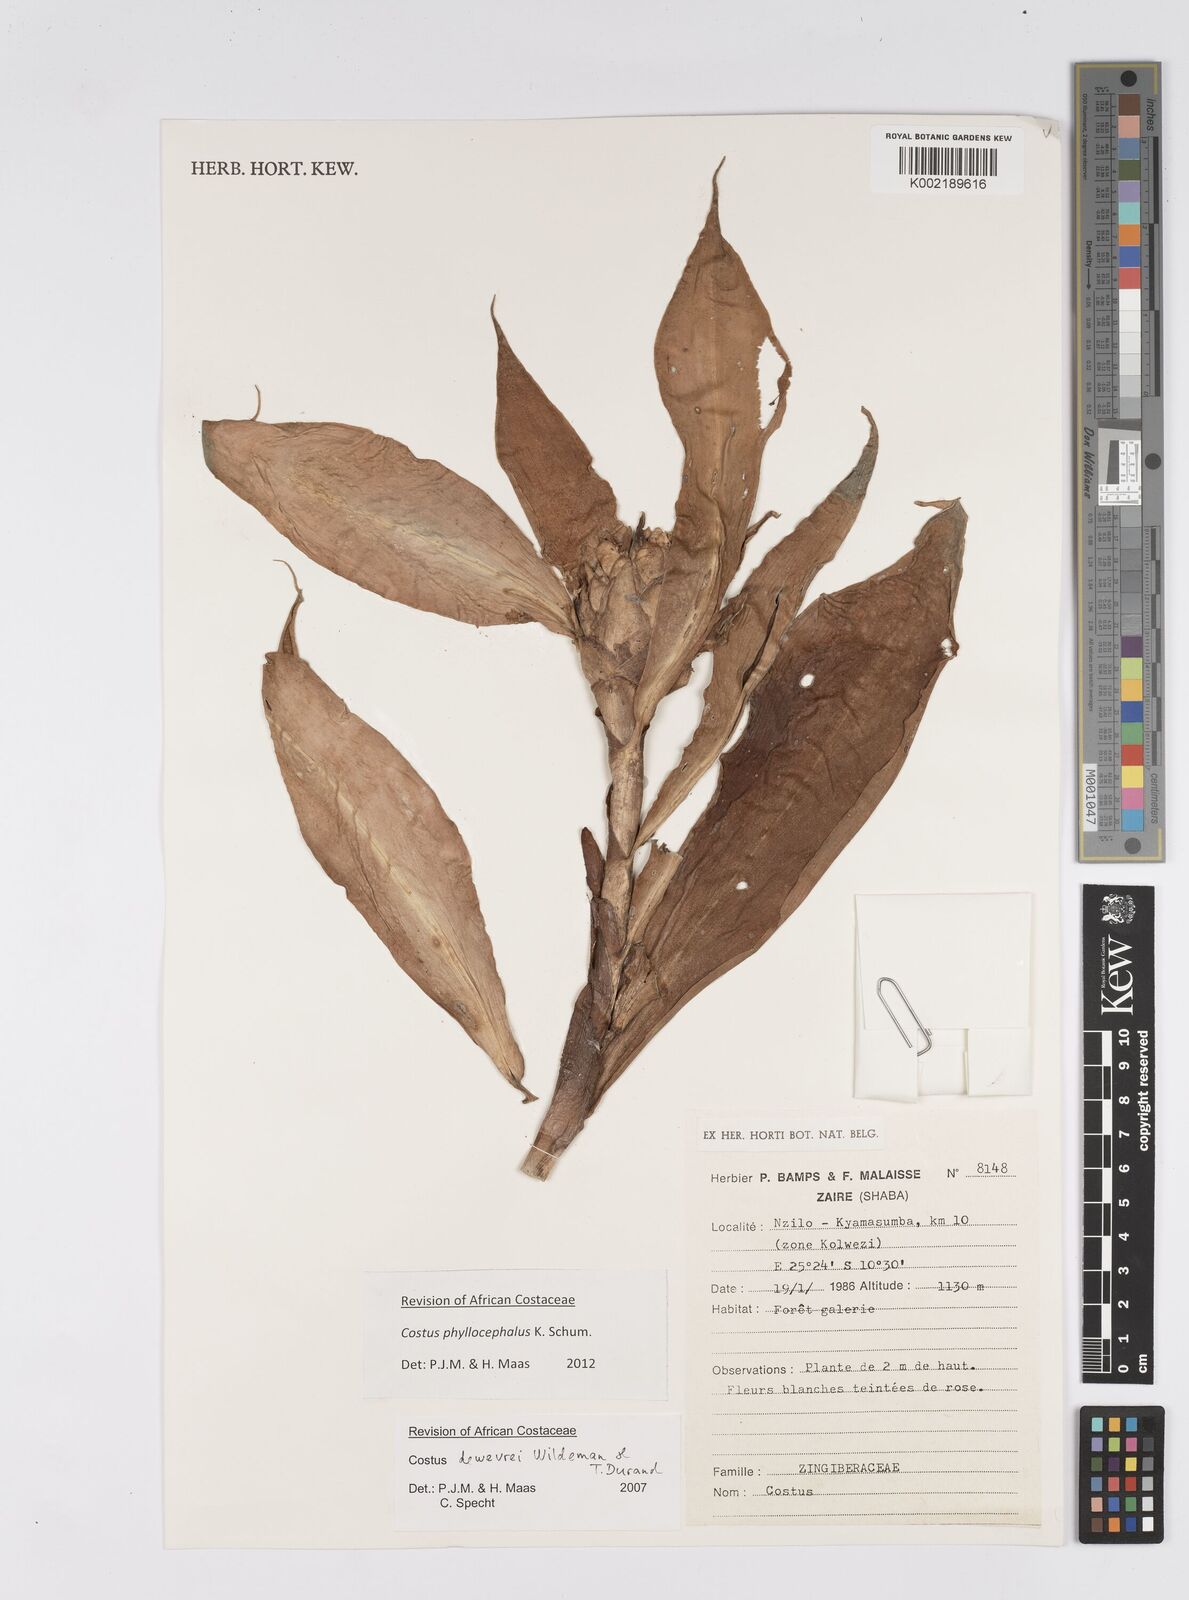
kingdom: Plantae
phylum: Tracheophyta
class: Liliopsida
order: Zingiberales
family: Costaceae
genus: Costus
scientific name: Costus phyllocephalus
